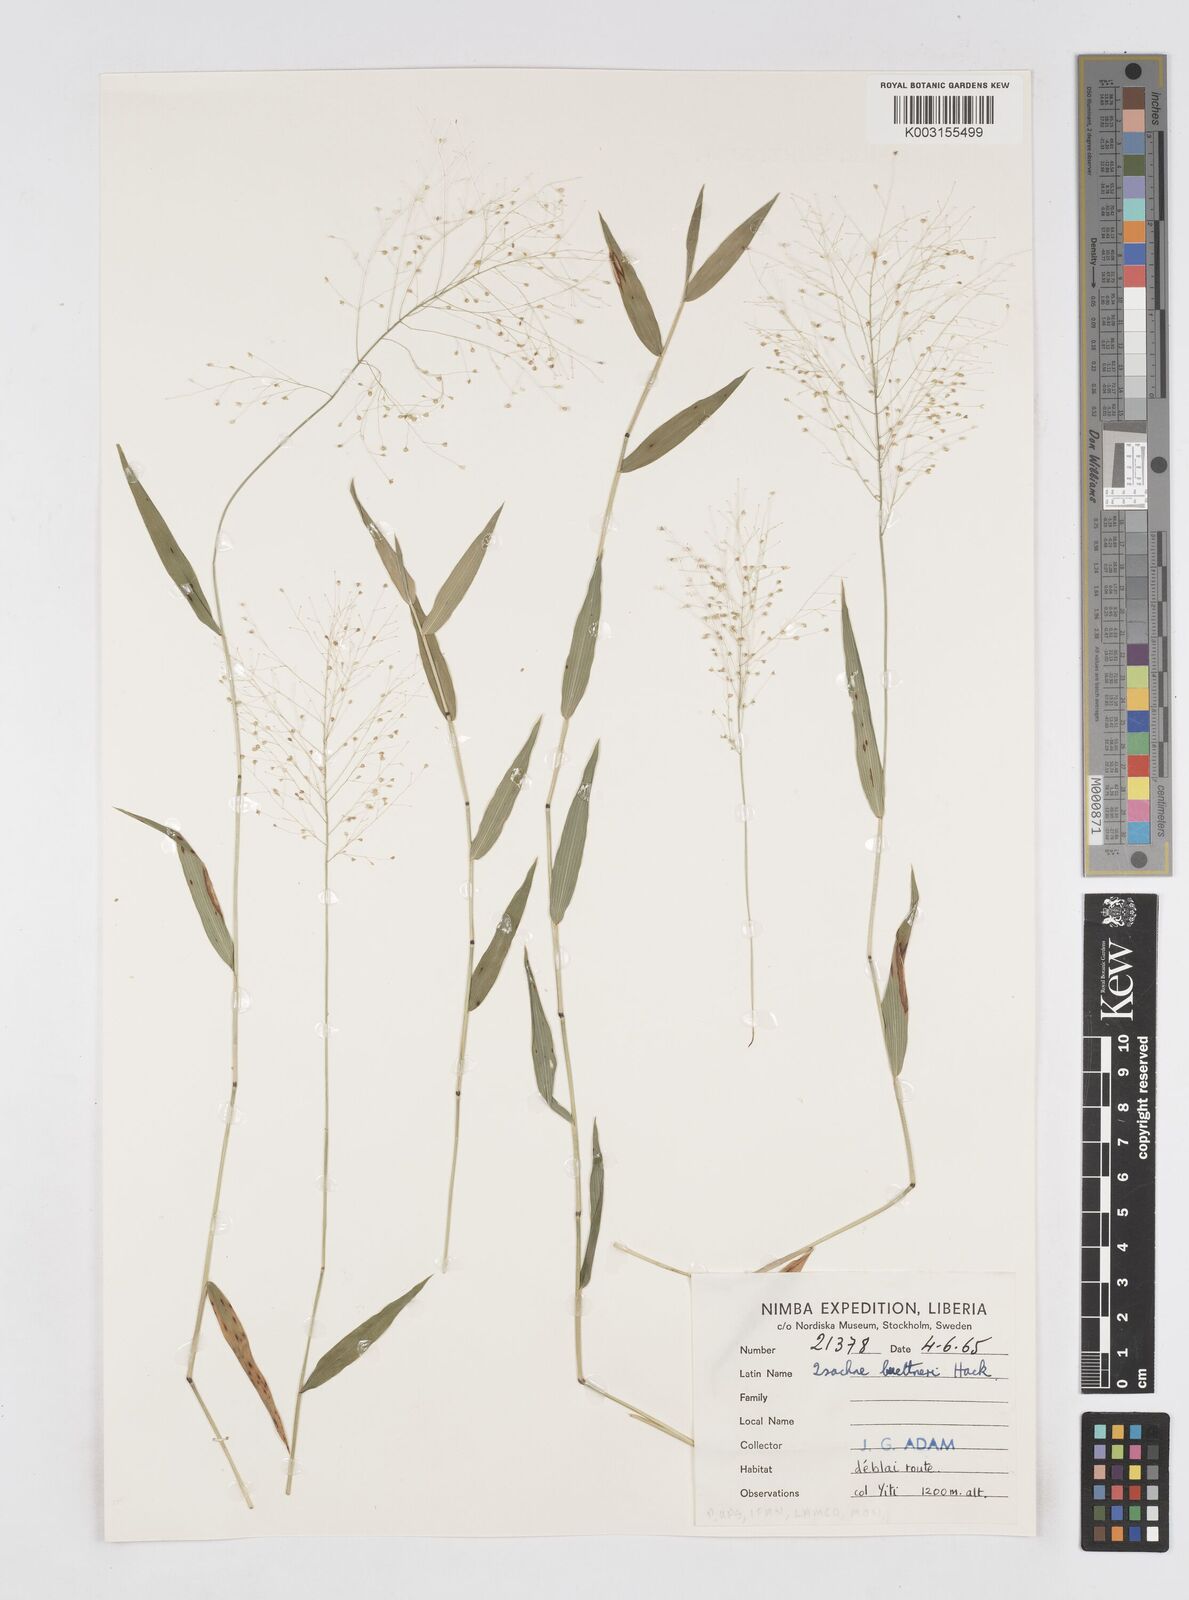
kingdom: Plantae
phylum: Tracheophyta
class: Liliopsida
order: Poales
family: Poaceae
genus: Isachne
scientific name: Isachne albens
